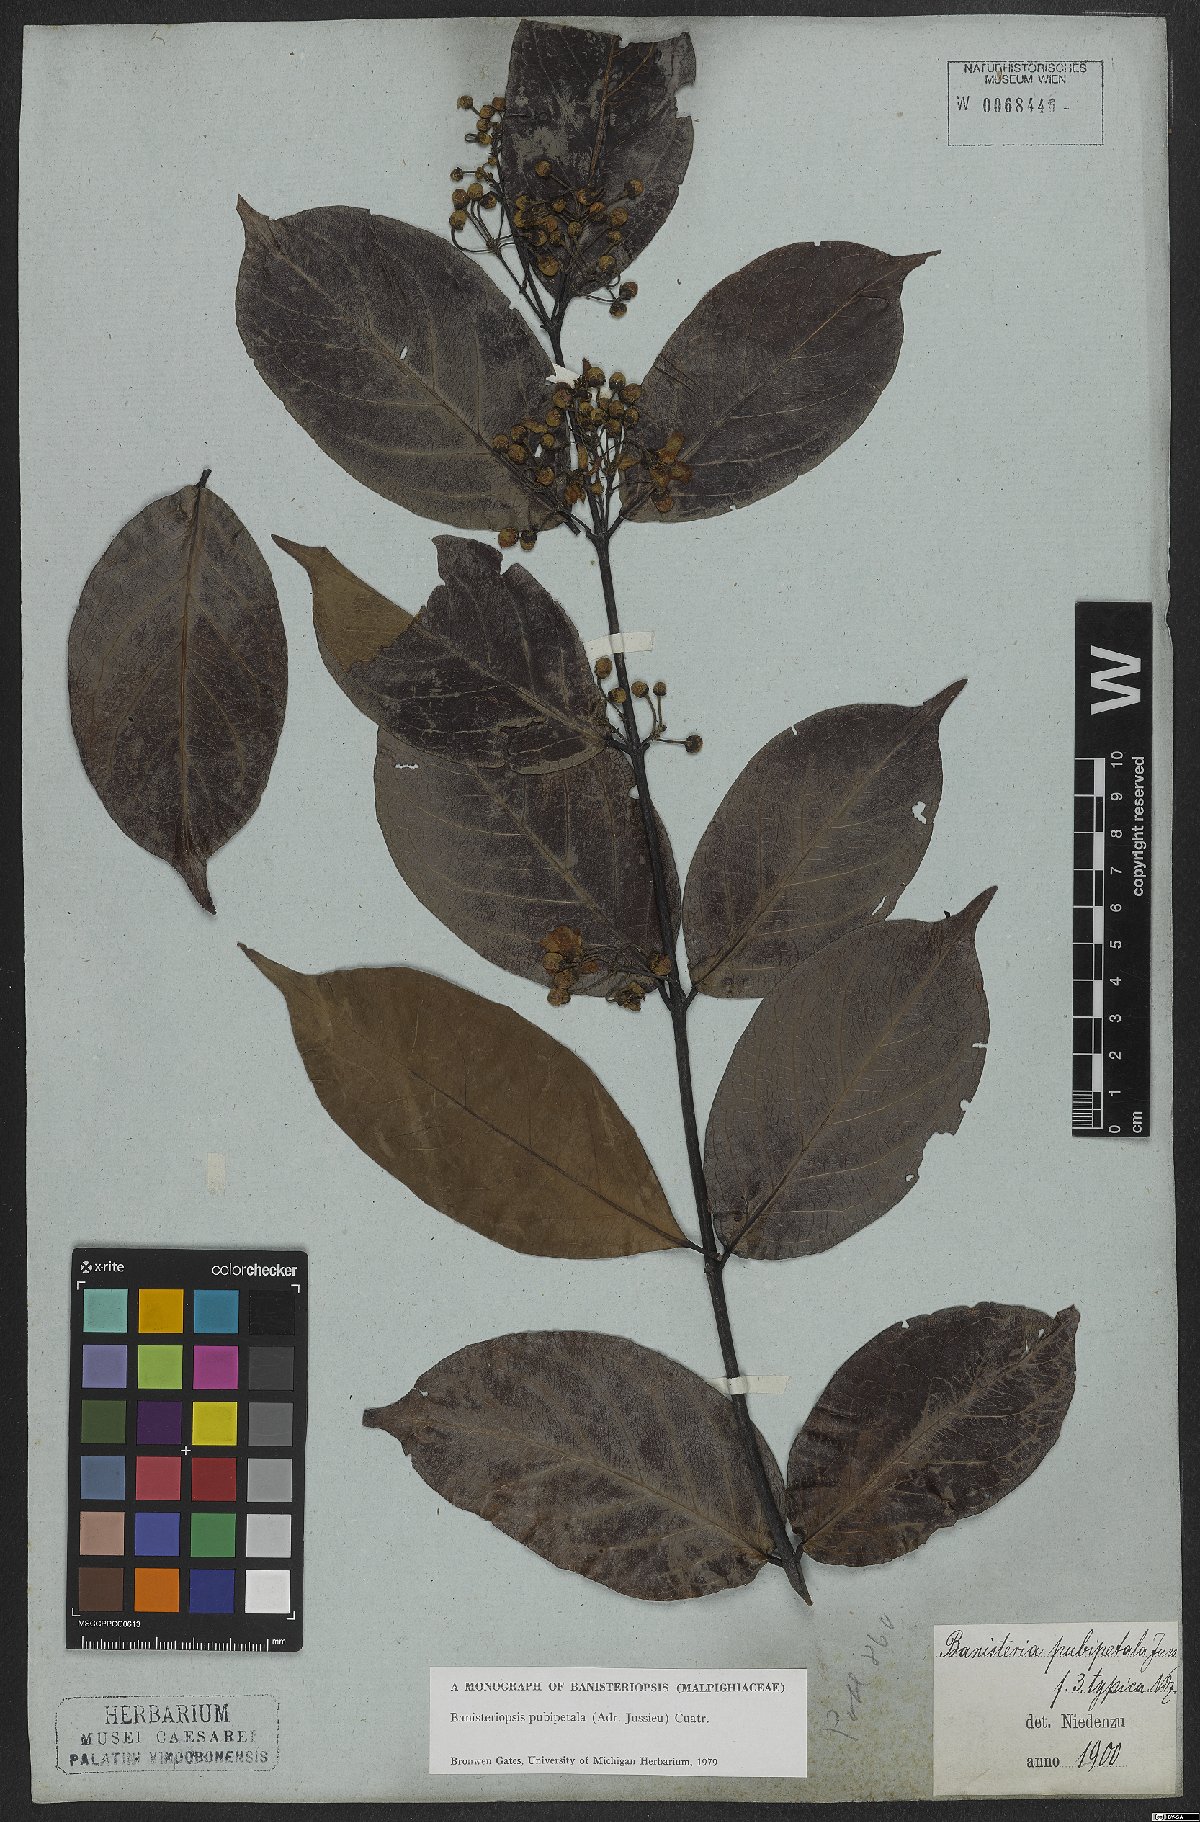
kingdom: Plantae
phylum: Tracheophyta
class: Magnoliopsida
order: Malpighiales
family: Malpighiaceae
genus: Diplopterys
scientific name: Diplopterys pubipetala
